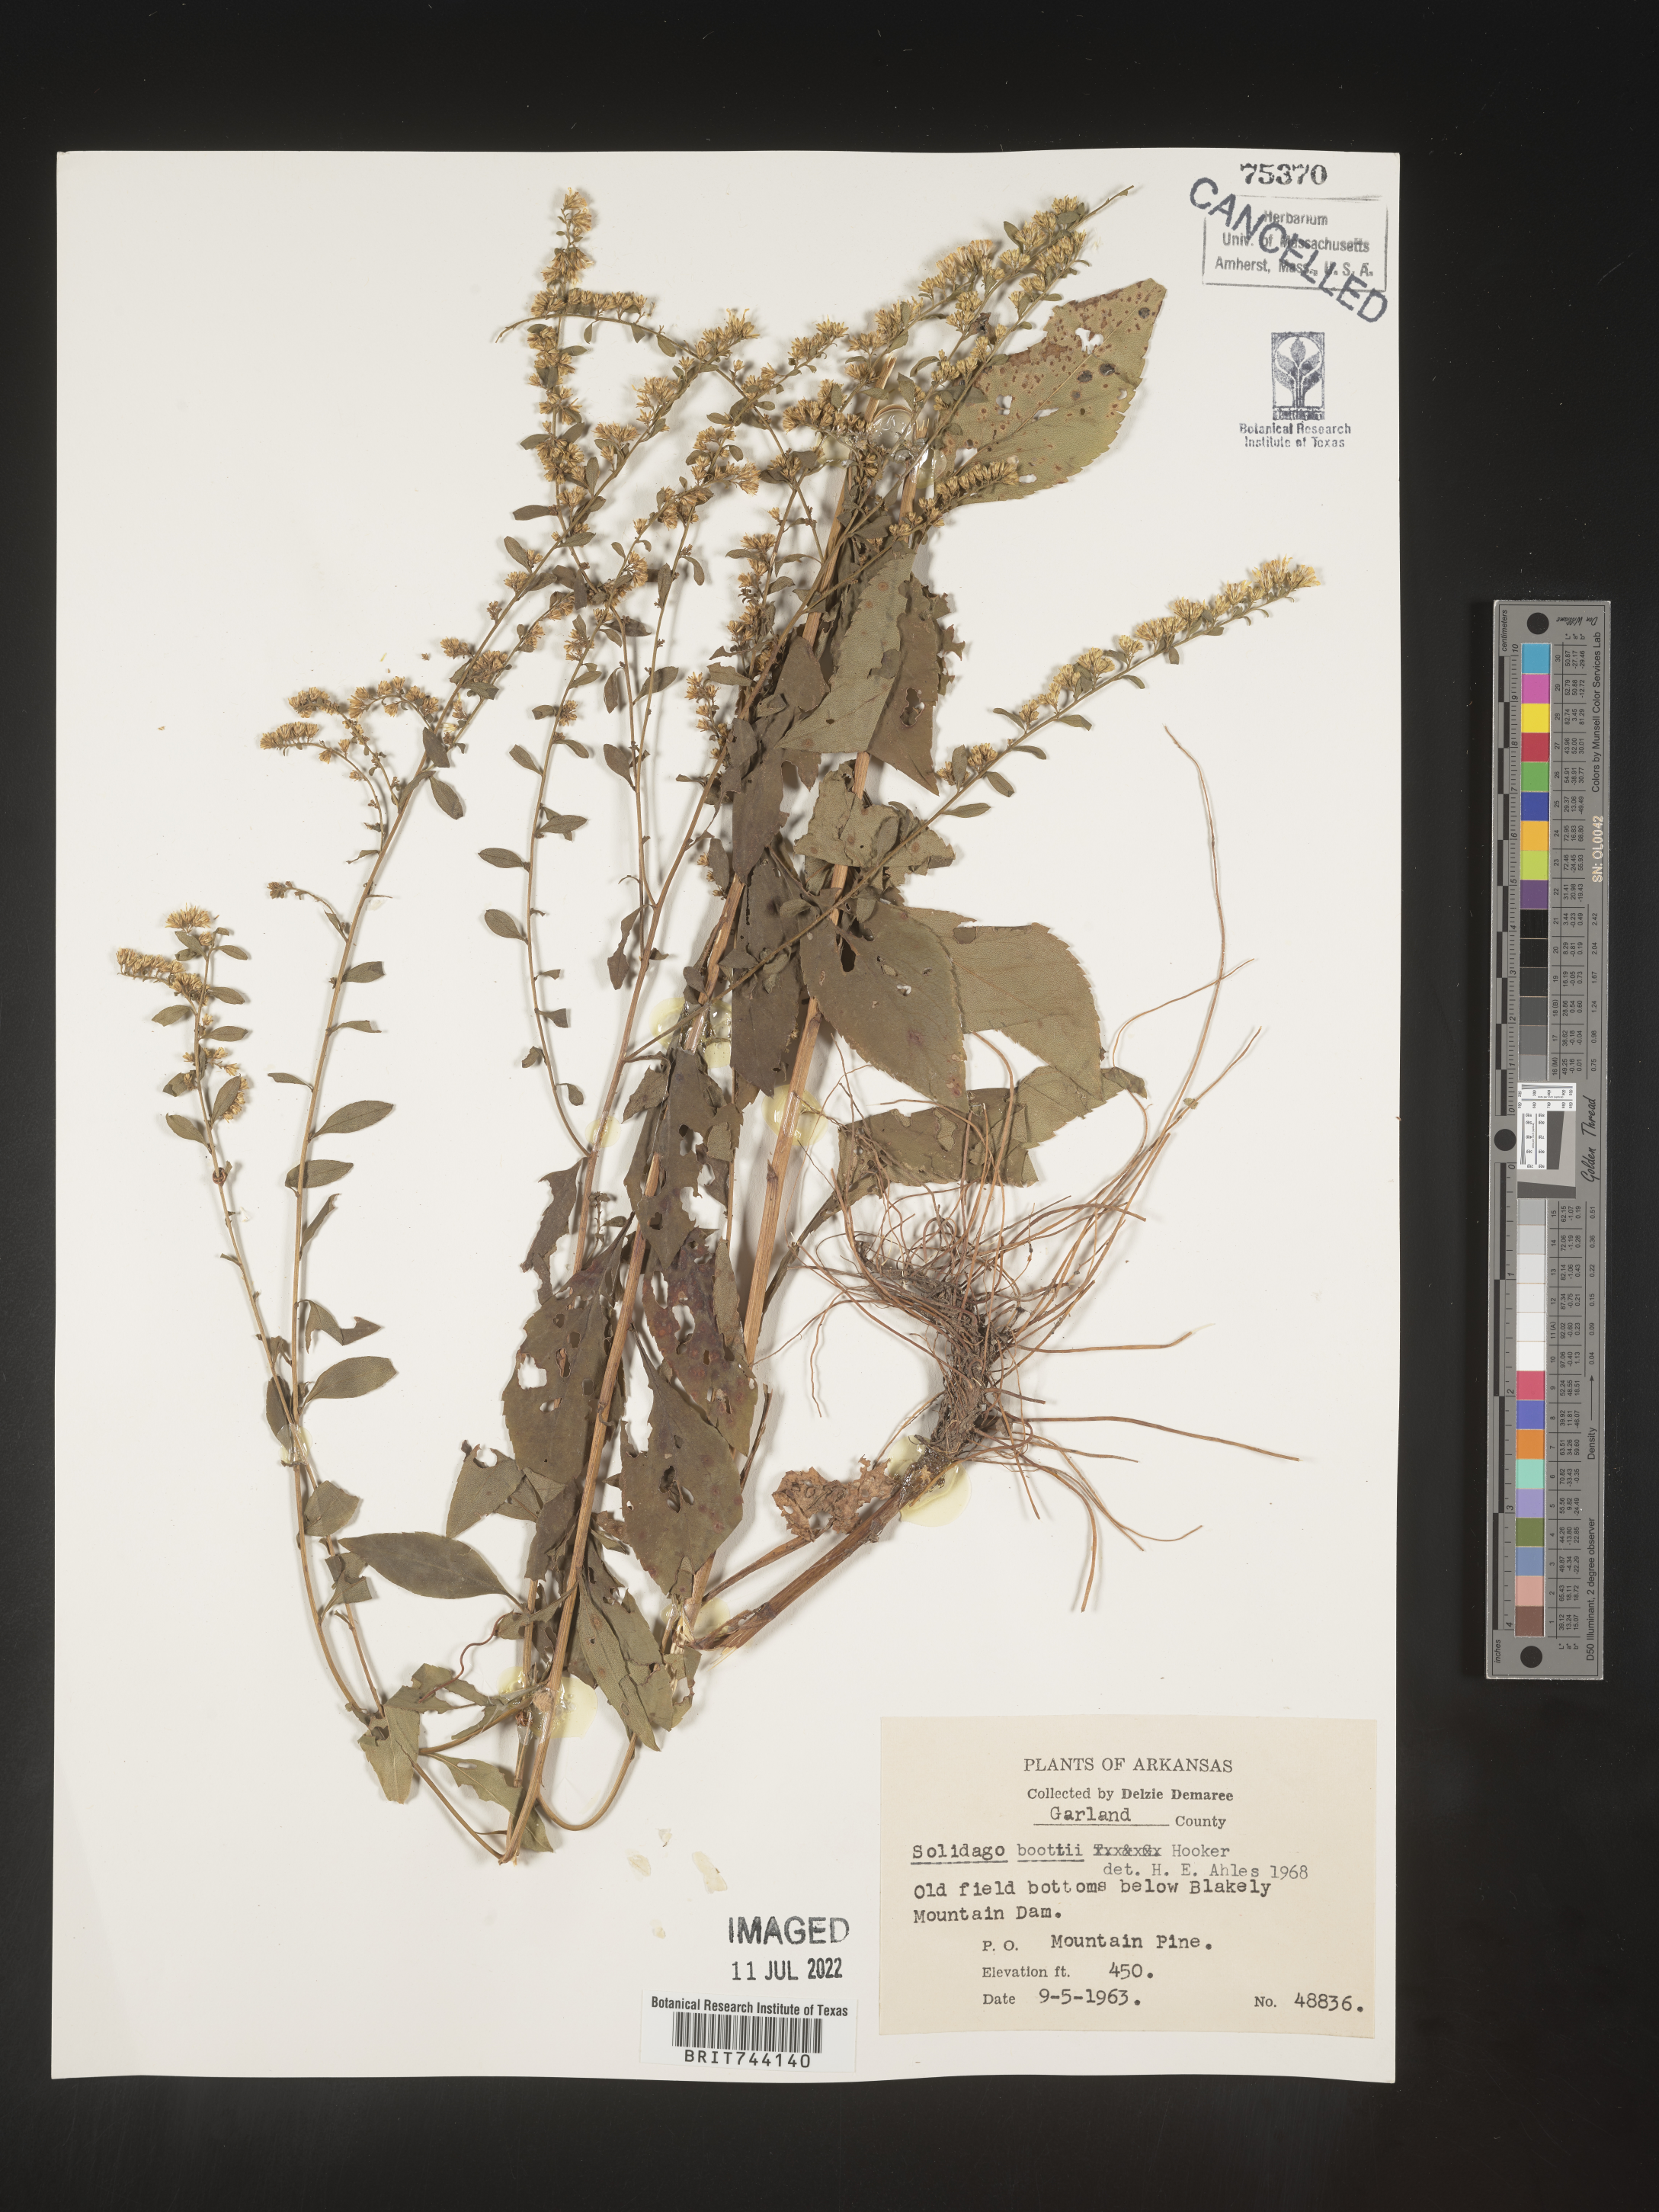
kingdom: Plantae
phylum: Tracheophyta
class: Magnoliopsida
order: Asterales
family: Asteraceae
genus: Solidago
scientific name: Solidago arguta
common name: Atlantic goldenrod
